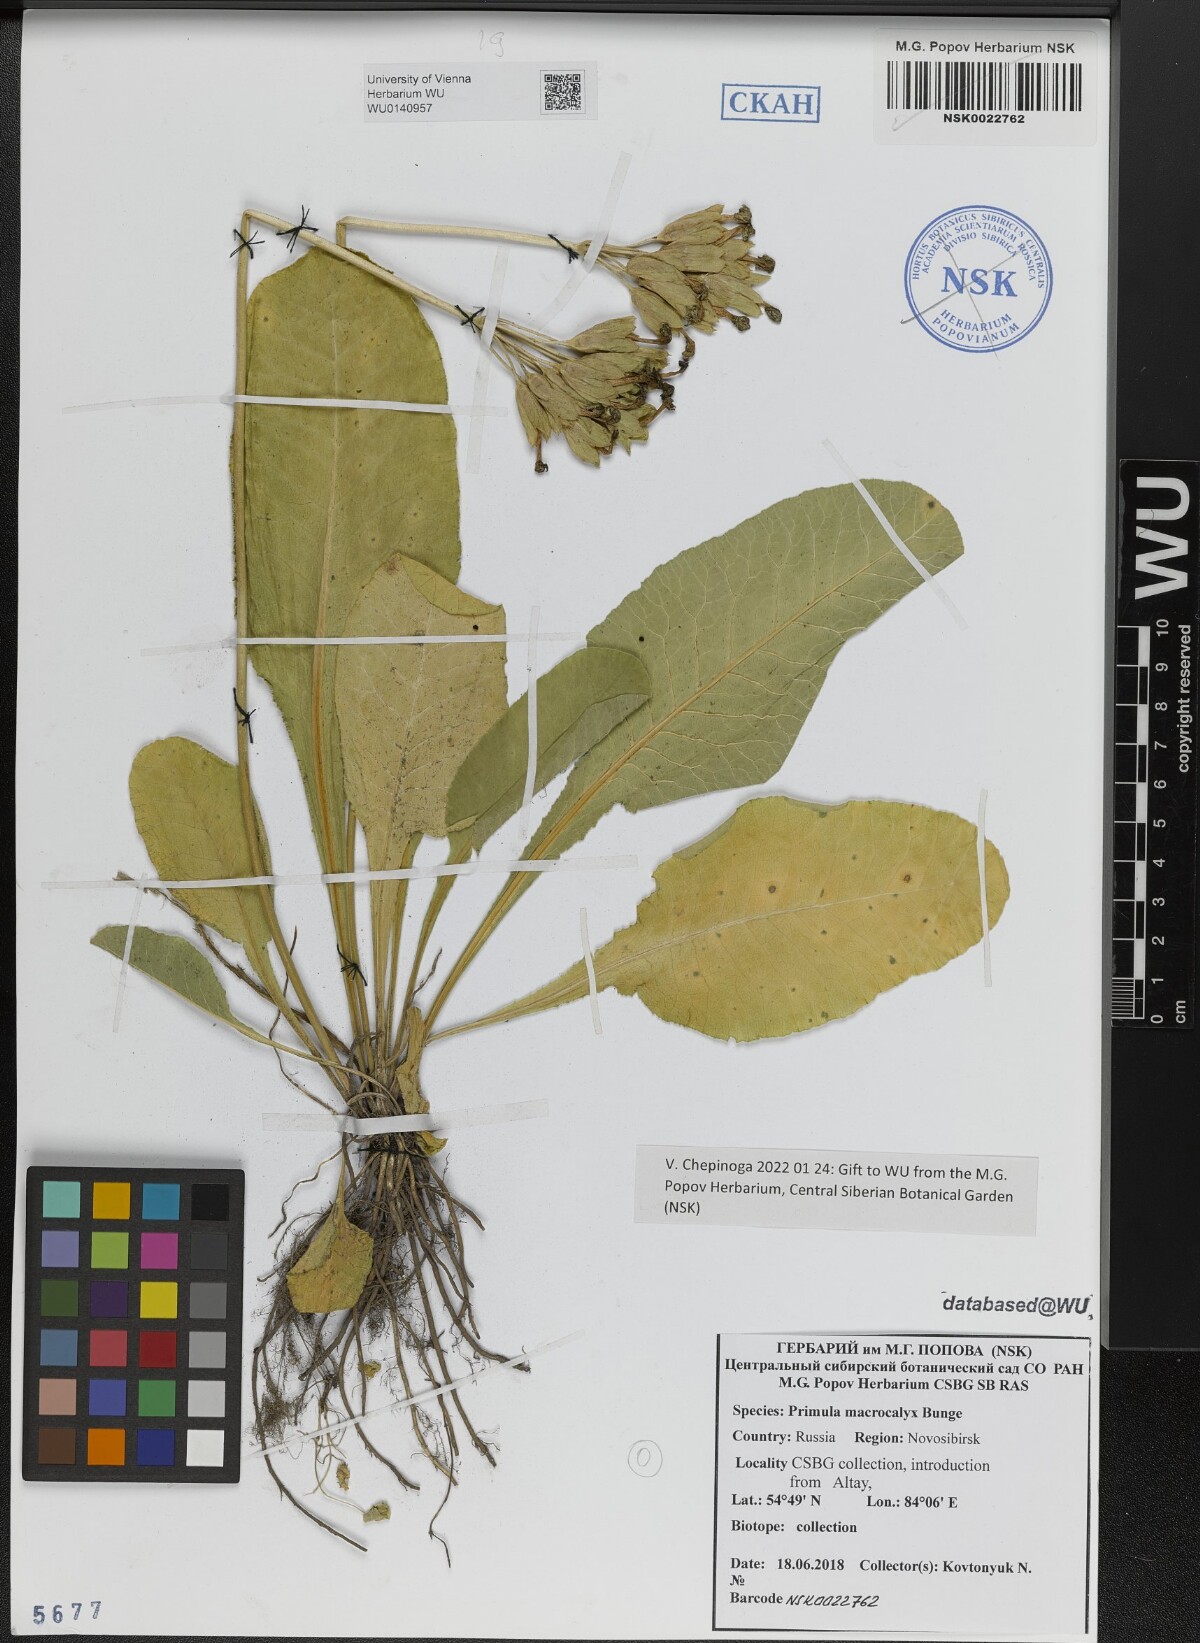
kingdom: Plantae
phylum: Tracheophyta
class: Magnoliopsida
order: Ericales
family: Primulaceae
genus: Primula
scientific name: Primula veris
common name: Cowslip
